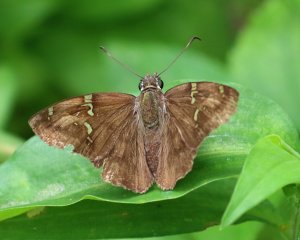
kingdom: Animalia
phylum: Arthropoda
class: Insecta
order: Lepidoptera
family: Hesperiidae
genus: Cabares
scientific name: Cabares potrillo
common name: Potrillo Skipper
